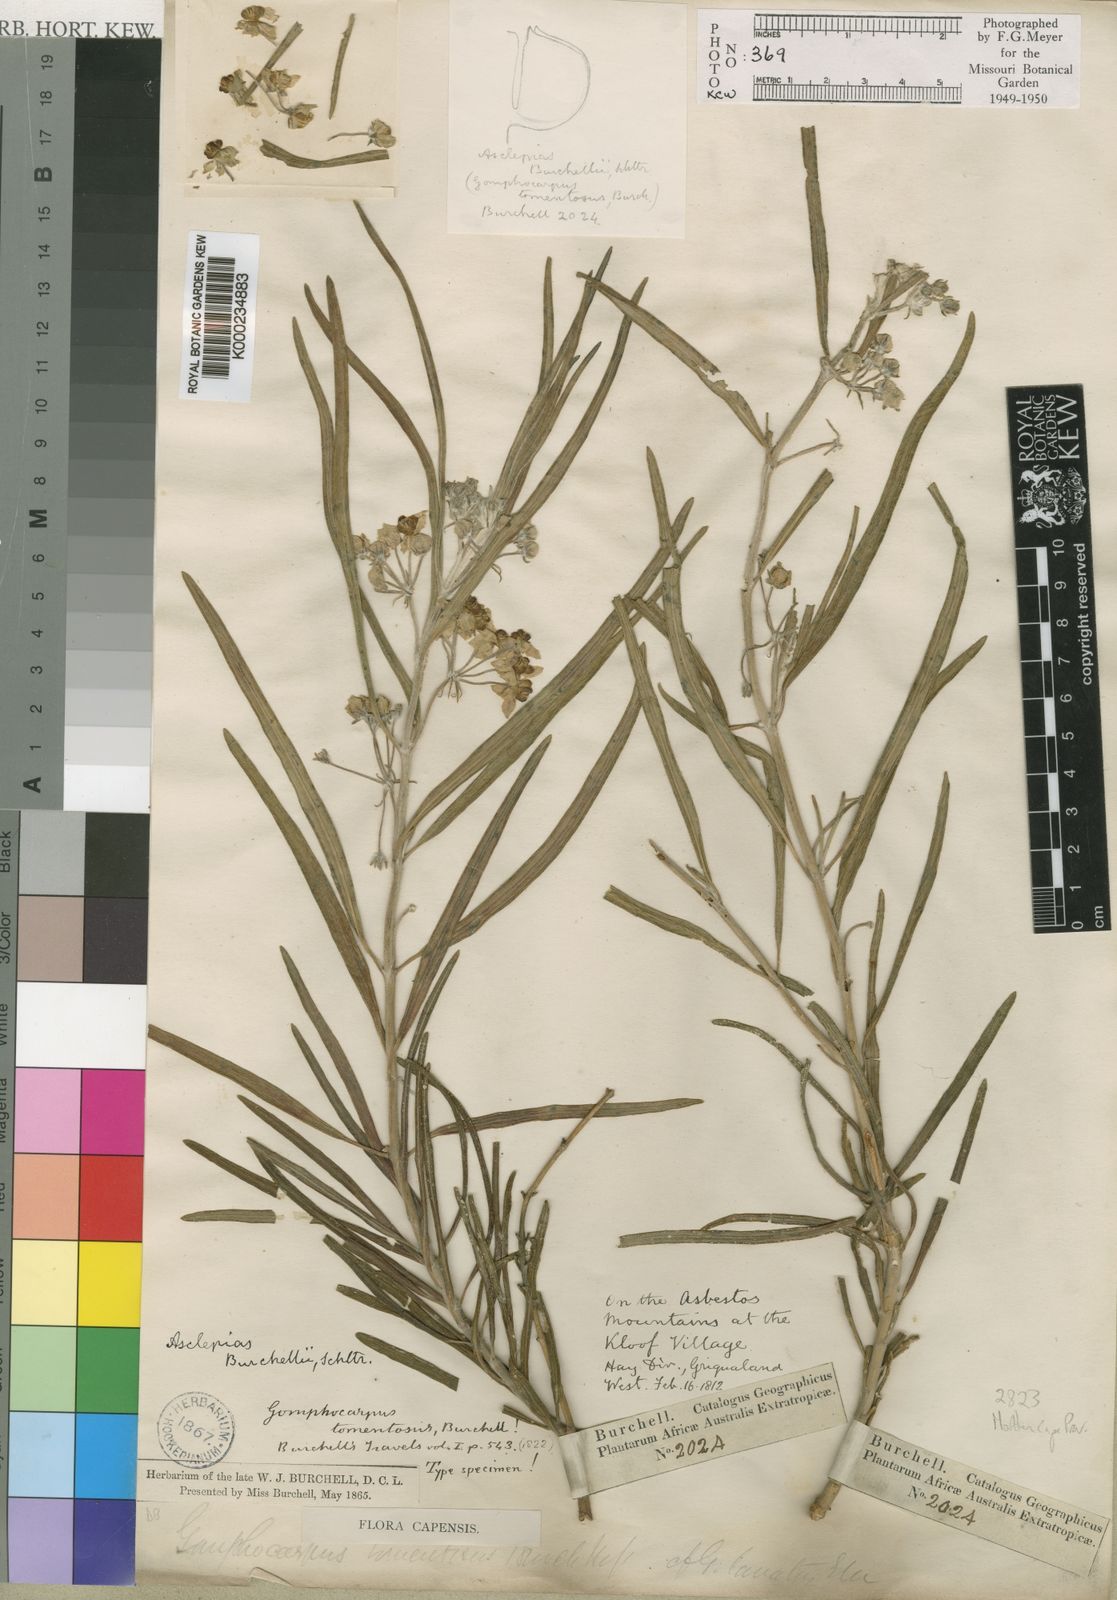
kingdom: Plantae
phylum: Tracheophyta
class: Magnoliopsida
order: Gentianales
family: Apocynaceae
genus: Gomphocarpus
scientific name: Gomphocarpus tomentosus
